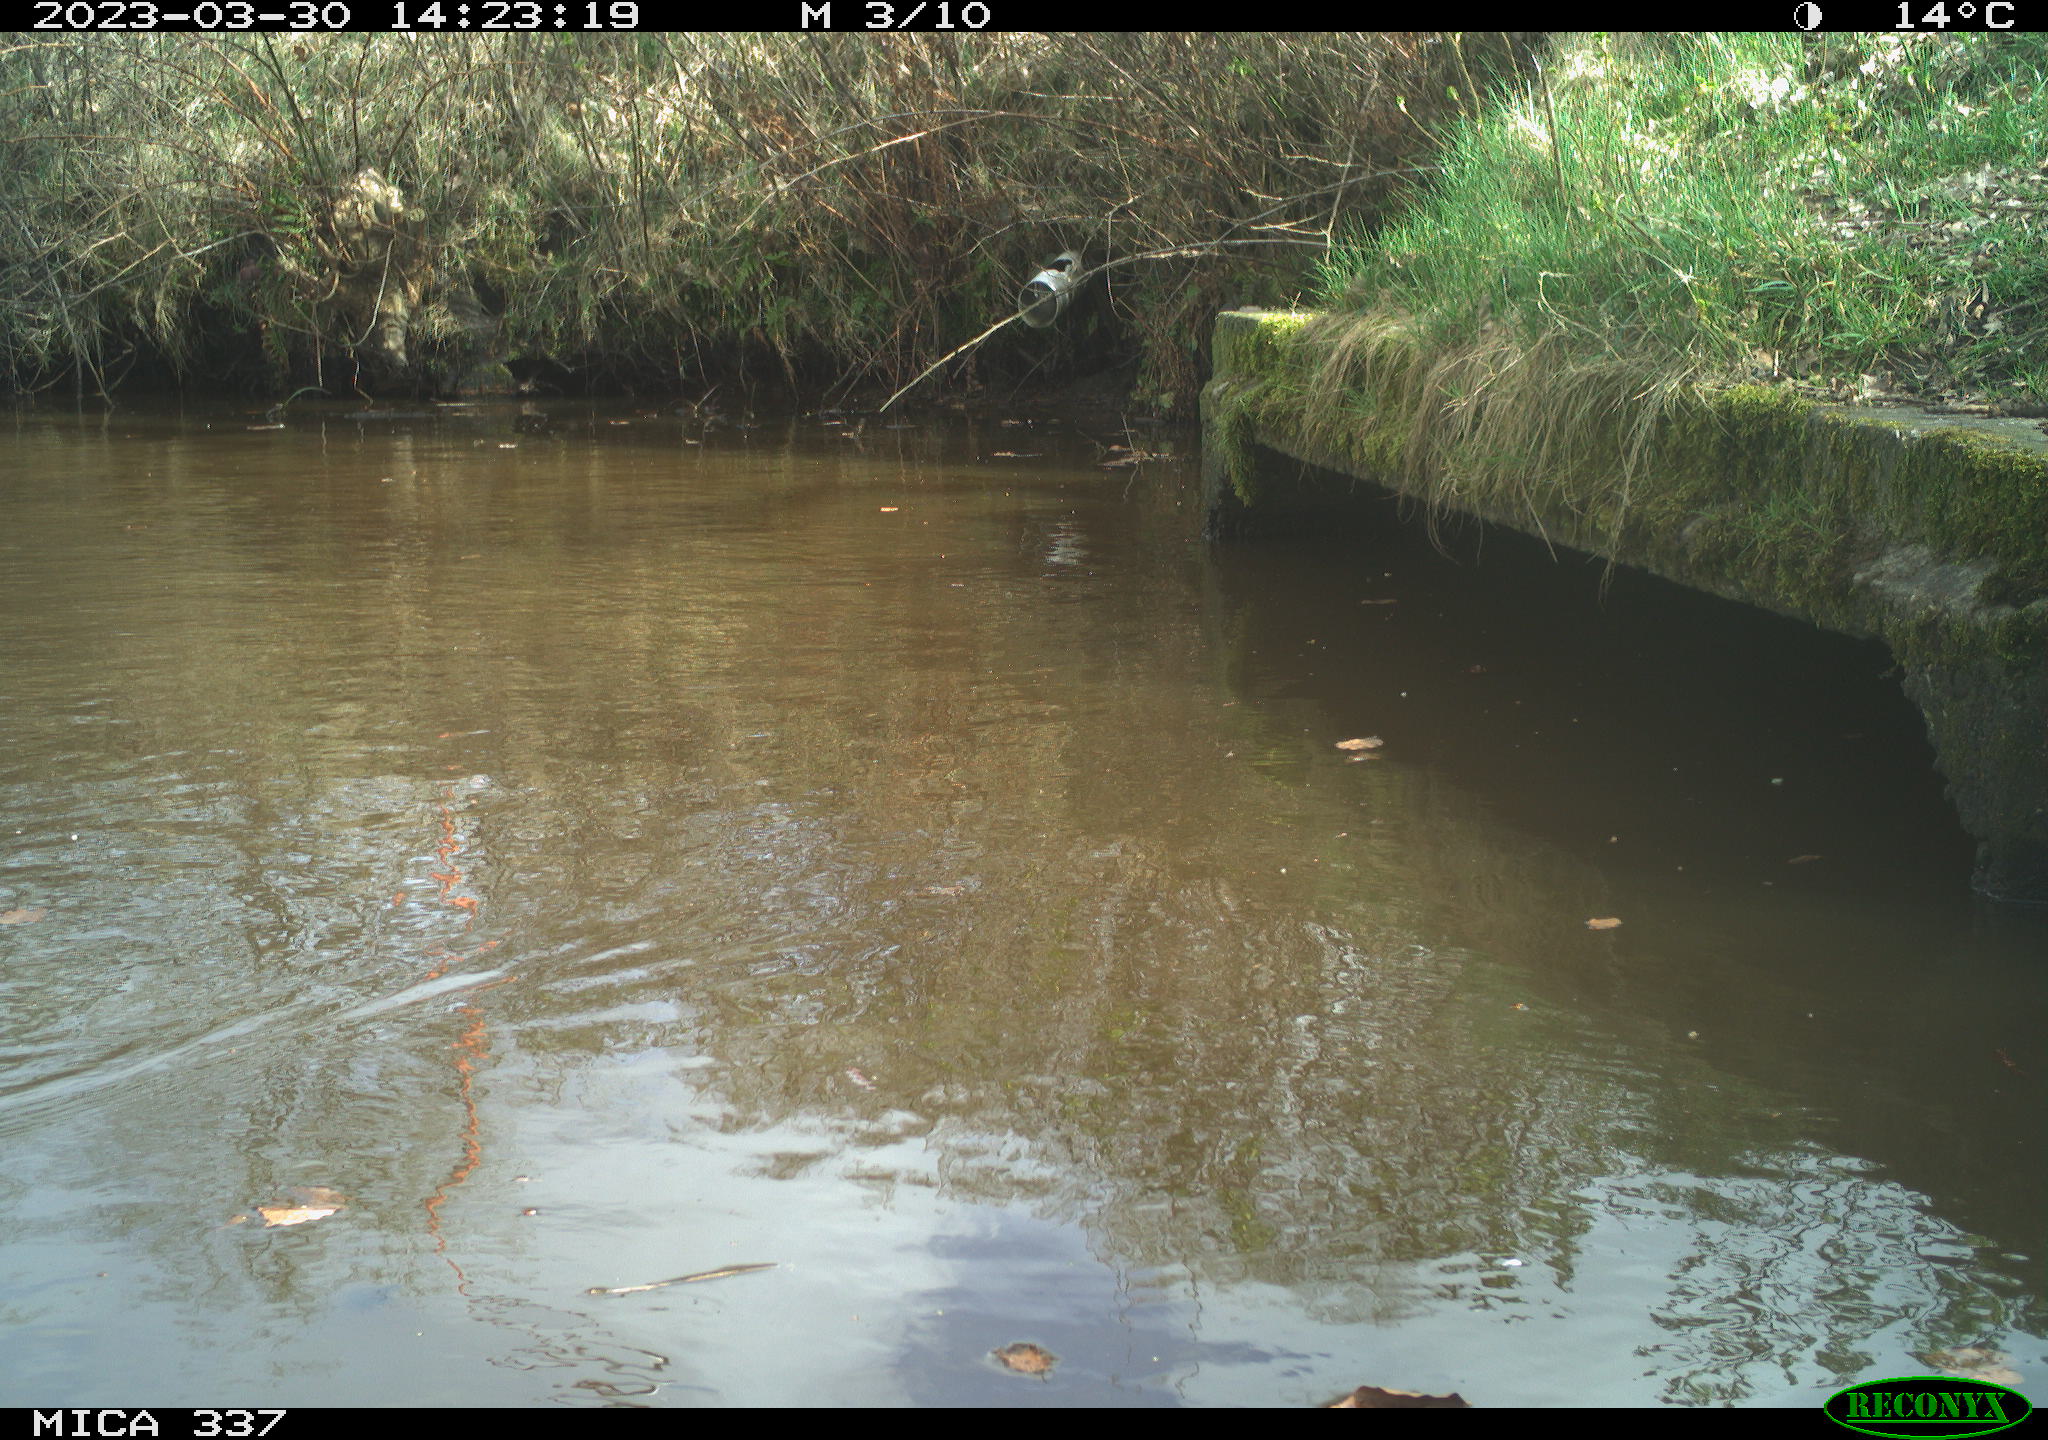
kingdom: Animalia
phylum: Chordata
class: Aves
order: Gruiformes
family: Rallidae
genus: Gallinula
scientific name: Gallinula chloropus
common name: Common moorhen
